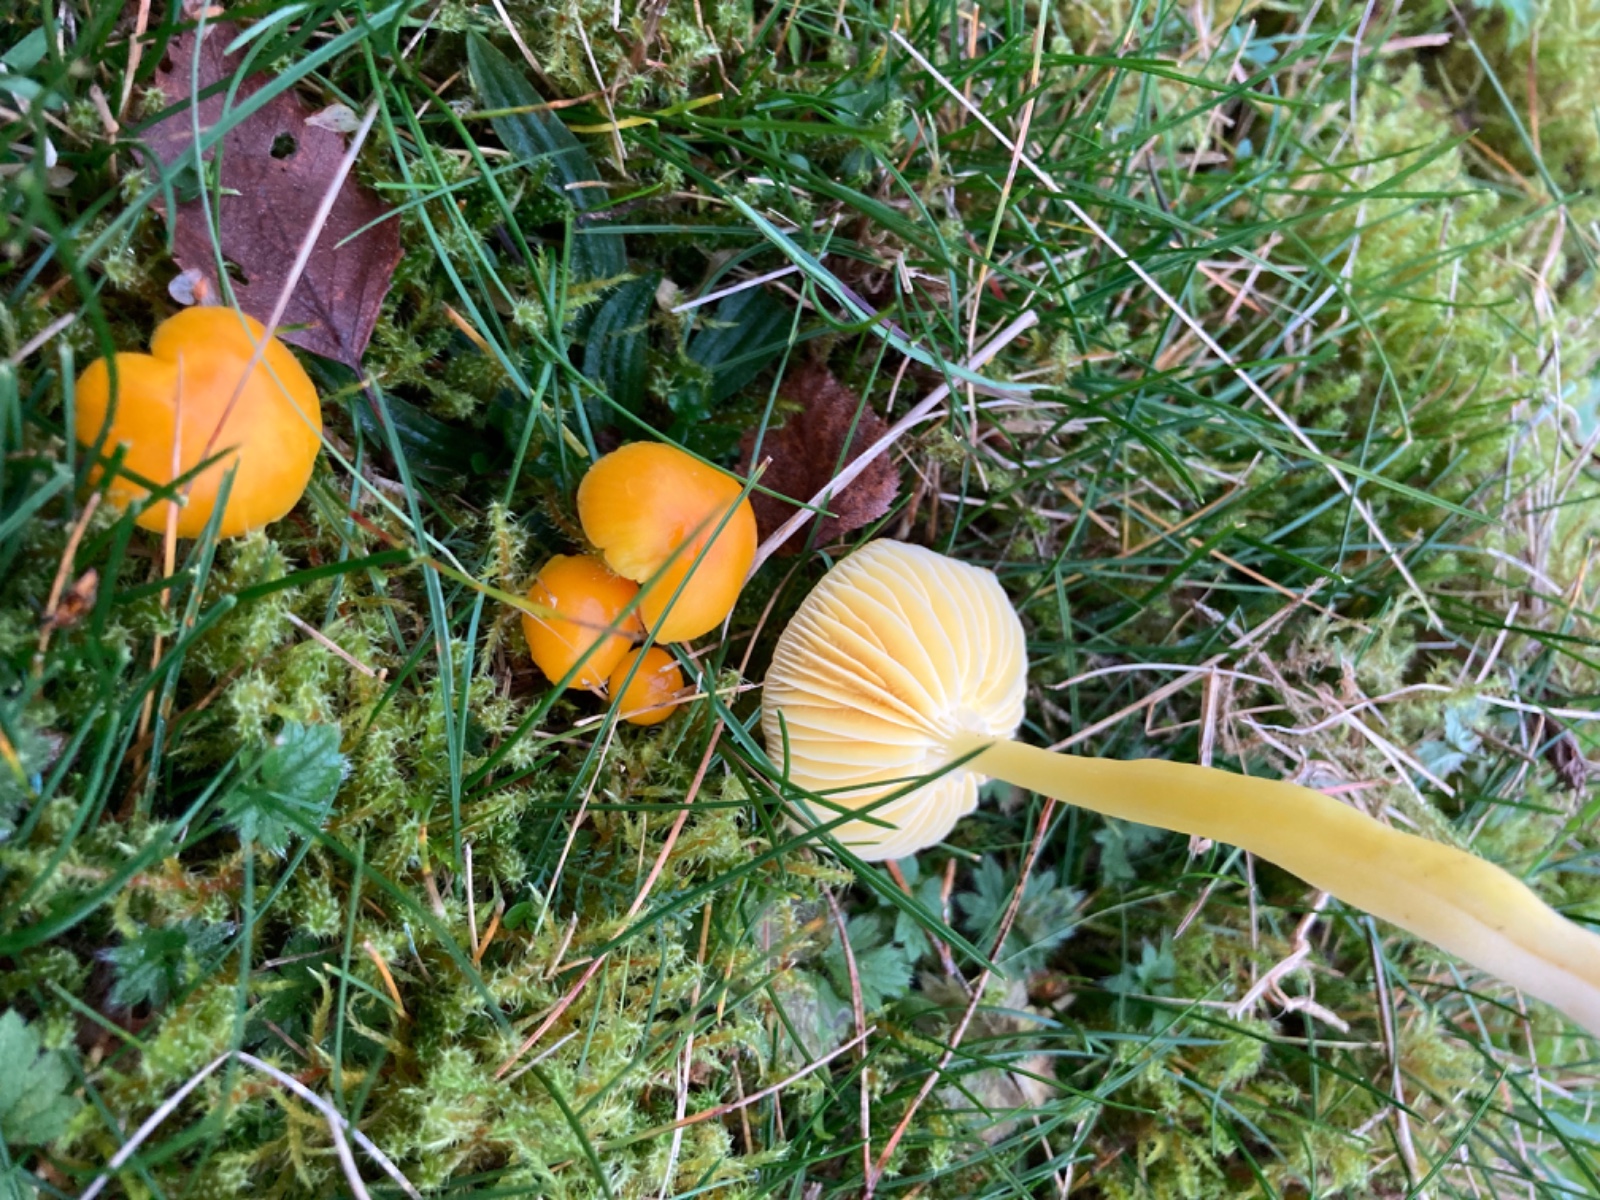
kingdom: Fungi
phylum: Basidiomycota
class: Agaricomycetes
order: Agaricales
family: Hygrophoraceae
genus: Hygrocybe
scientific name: Hygrocybe chlorophana
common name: gul vokshat
